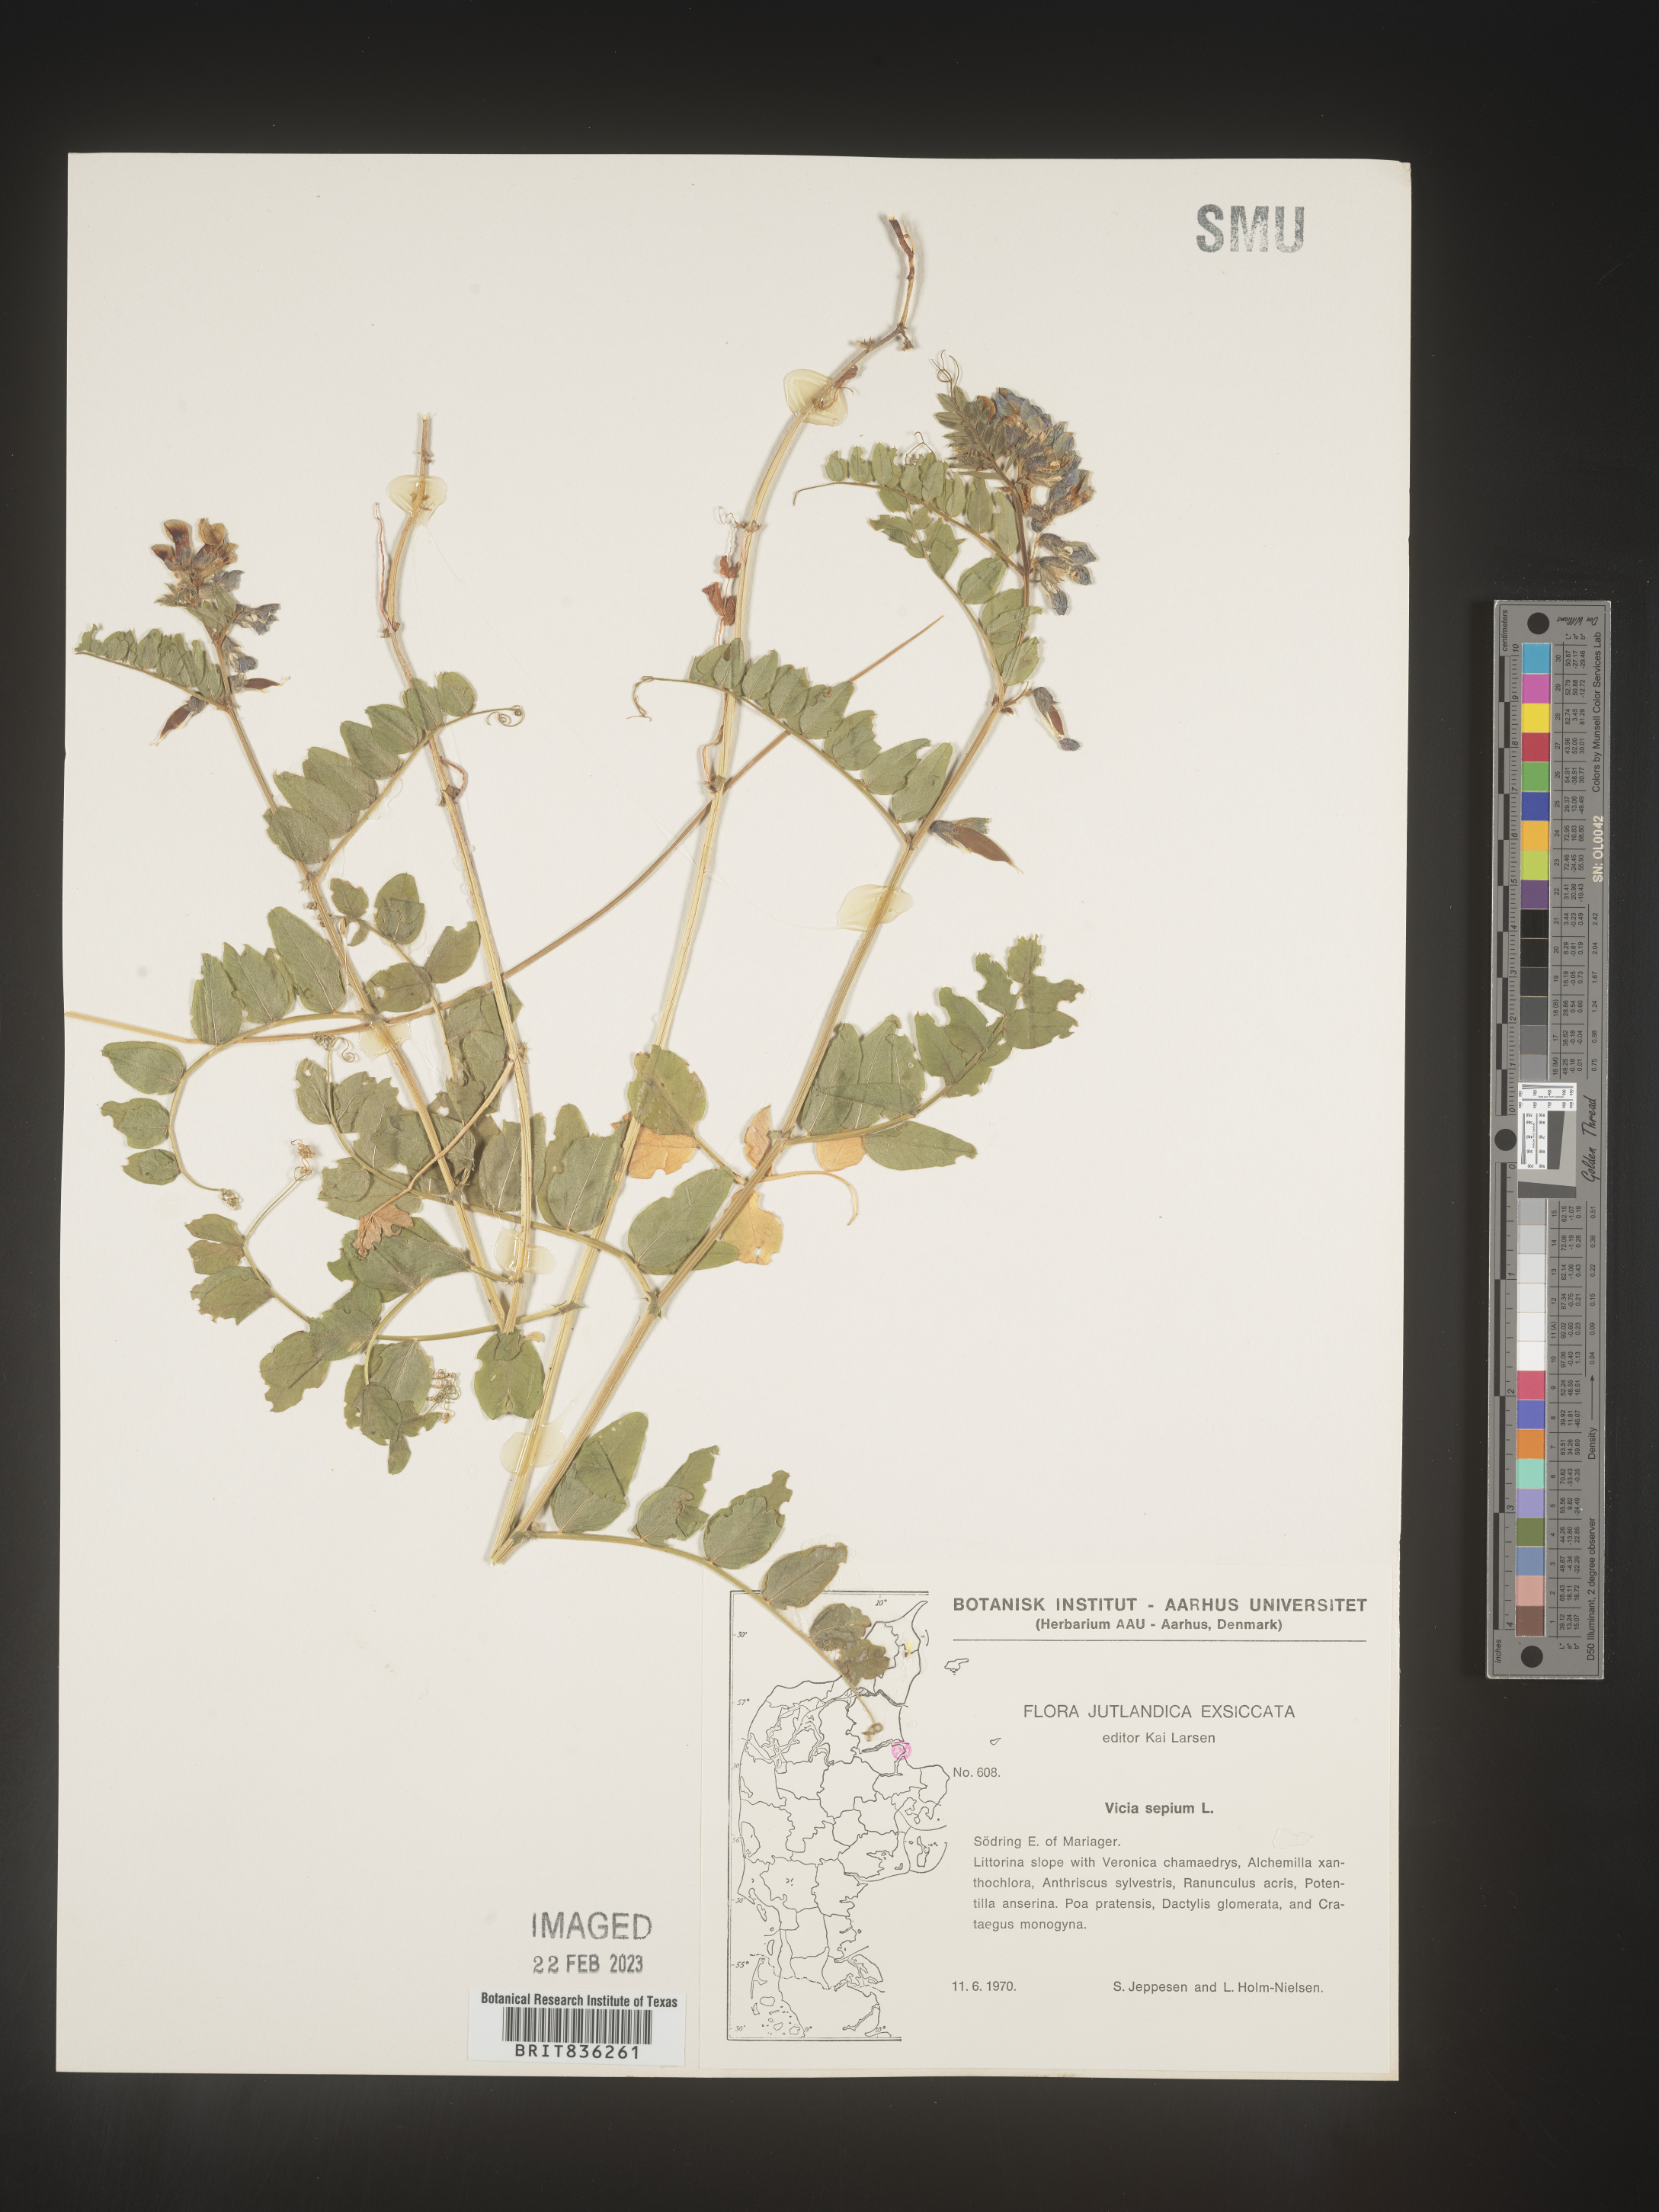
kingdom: Plantae
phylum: Tracheophyta
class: Magnoliopsida
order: Fabales
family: Fabaceae
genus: Vicia
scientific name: Vicia
